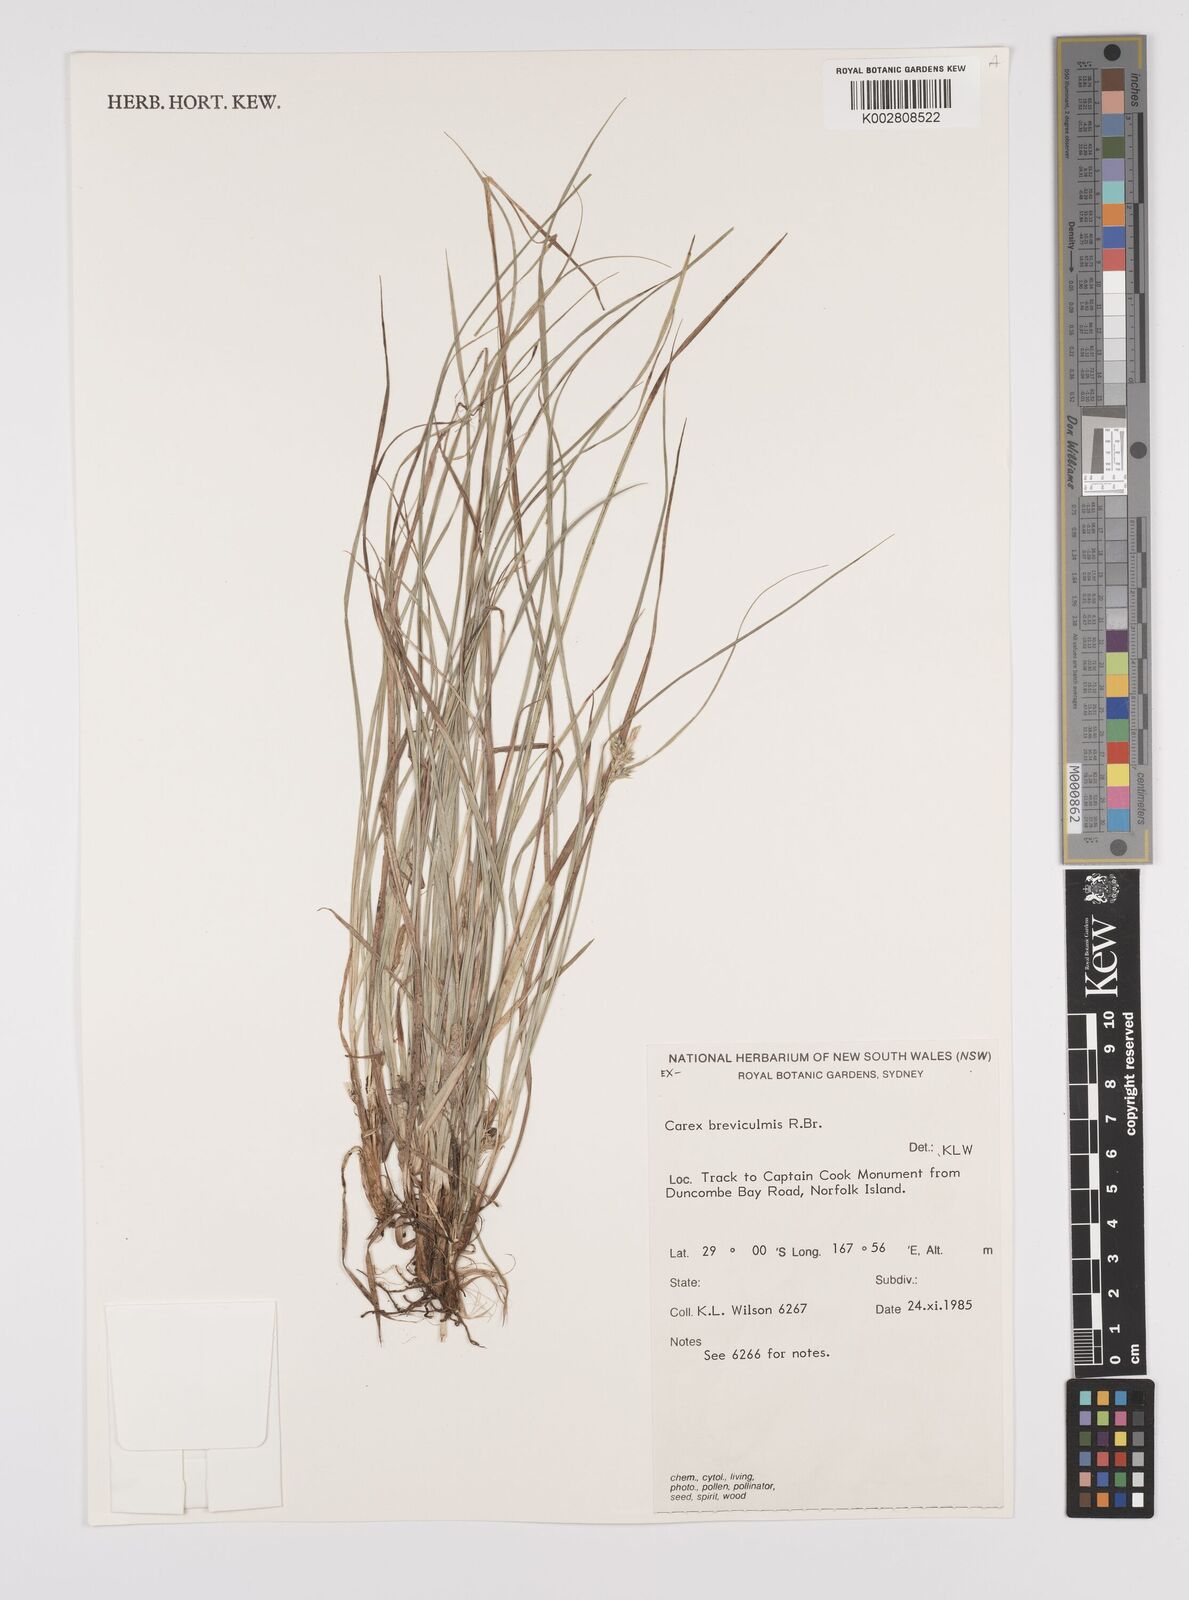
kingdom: Plantae
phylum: Tracheophyta
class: Liliopsida
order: Poales
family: Cyperaceae
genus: Carex
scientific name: Carex breviculmis
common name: Asian shortstem sedge
